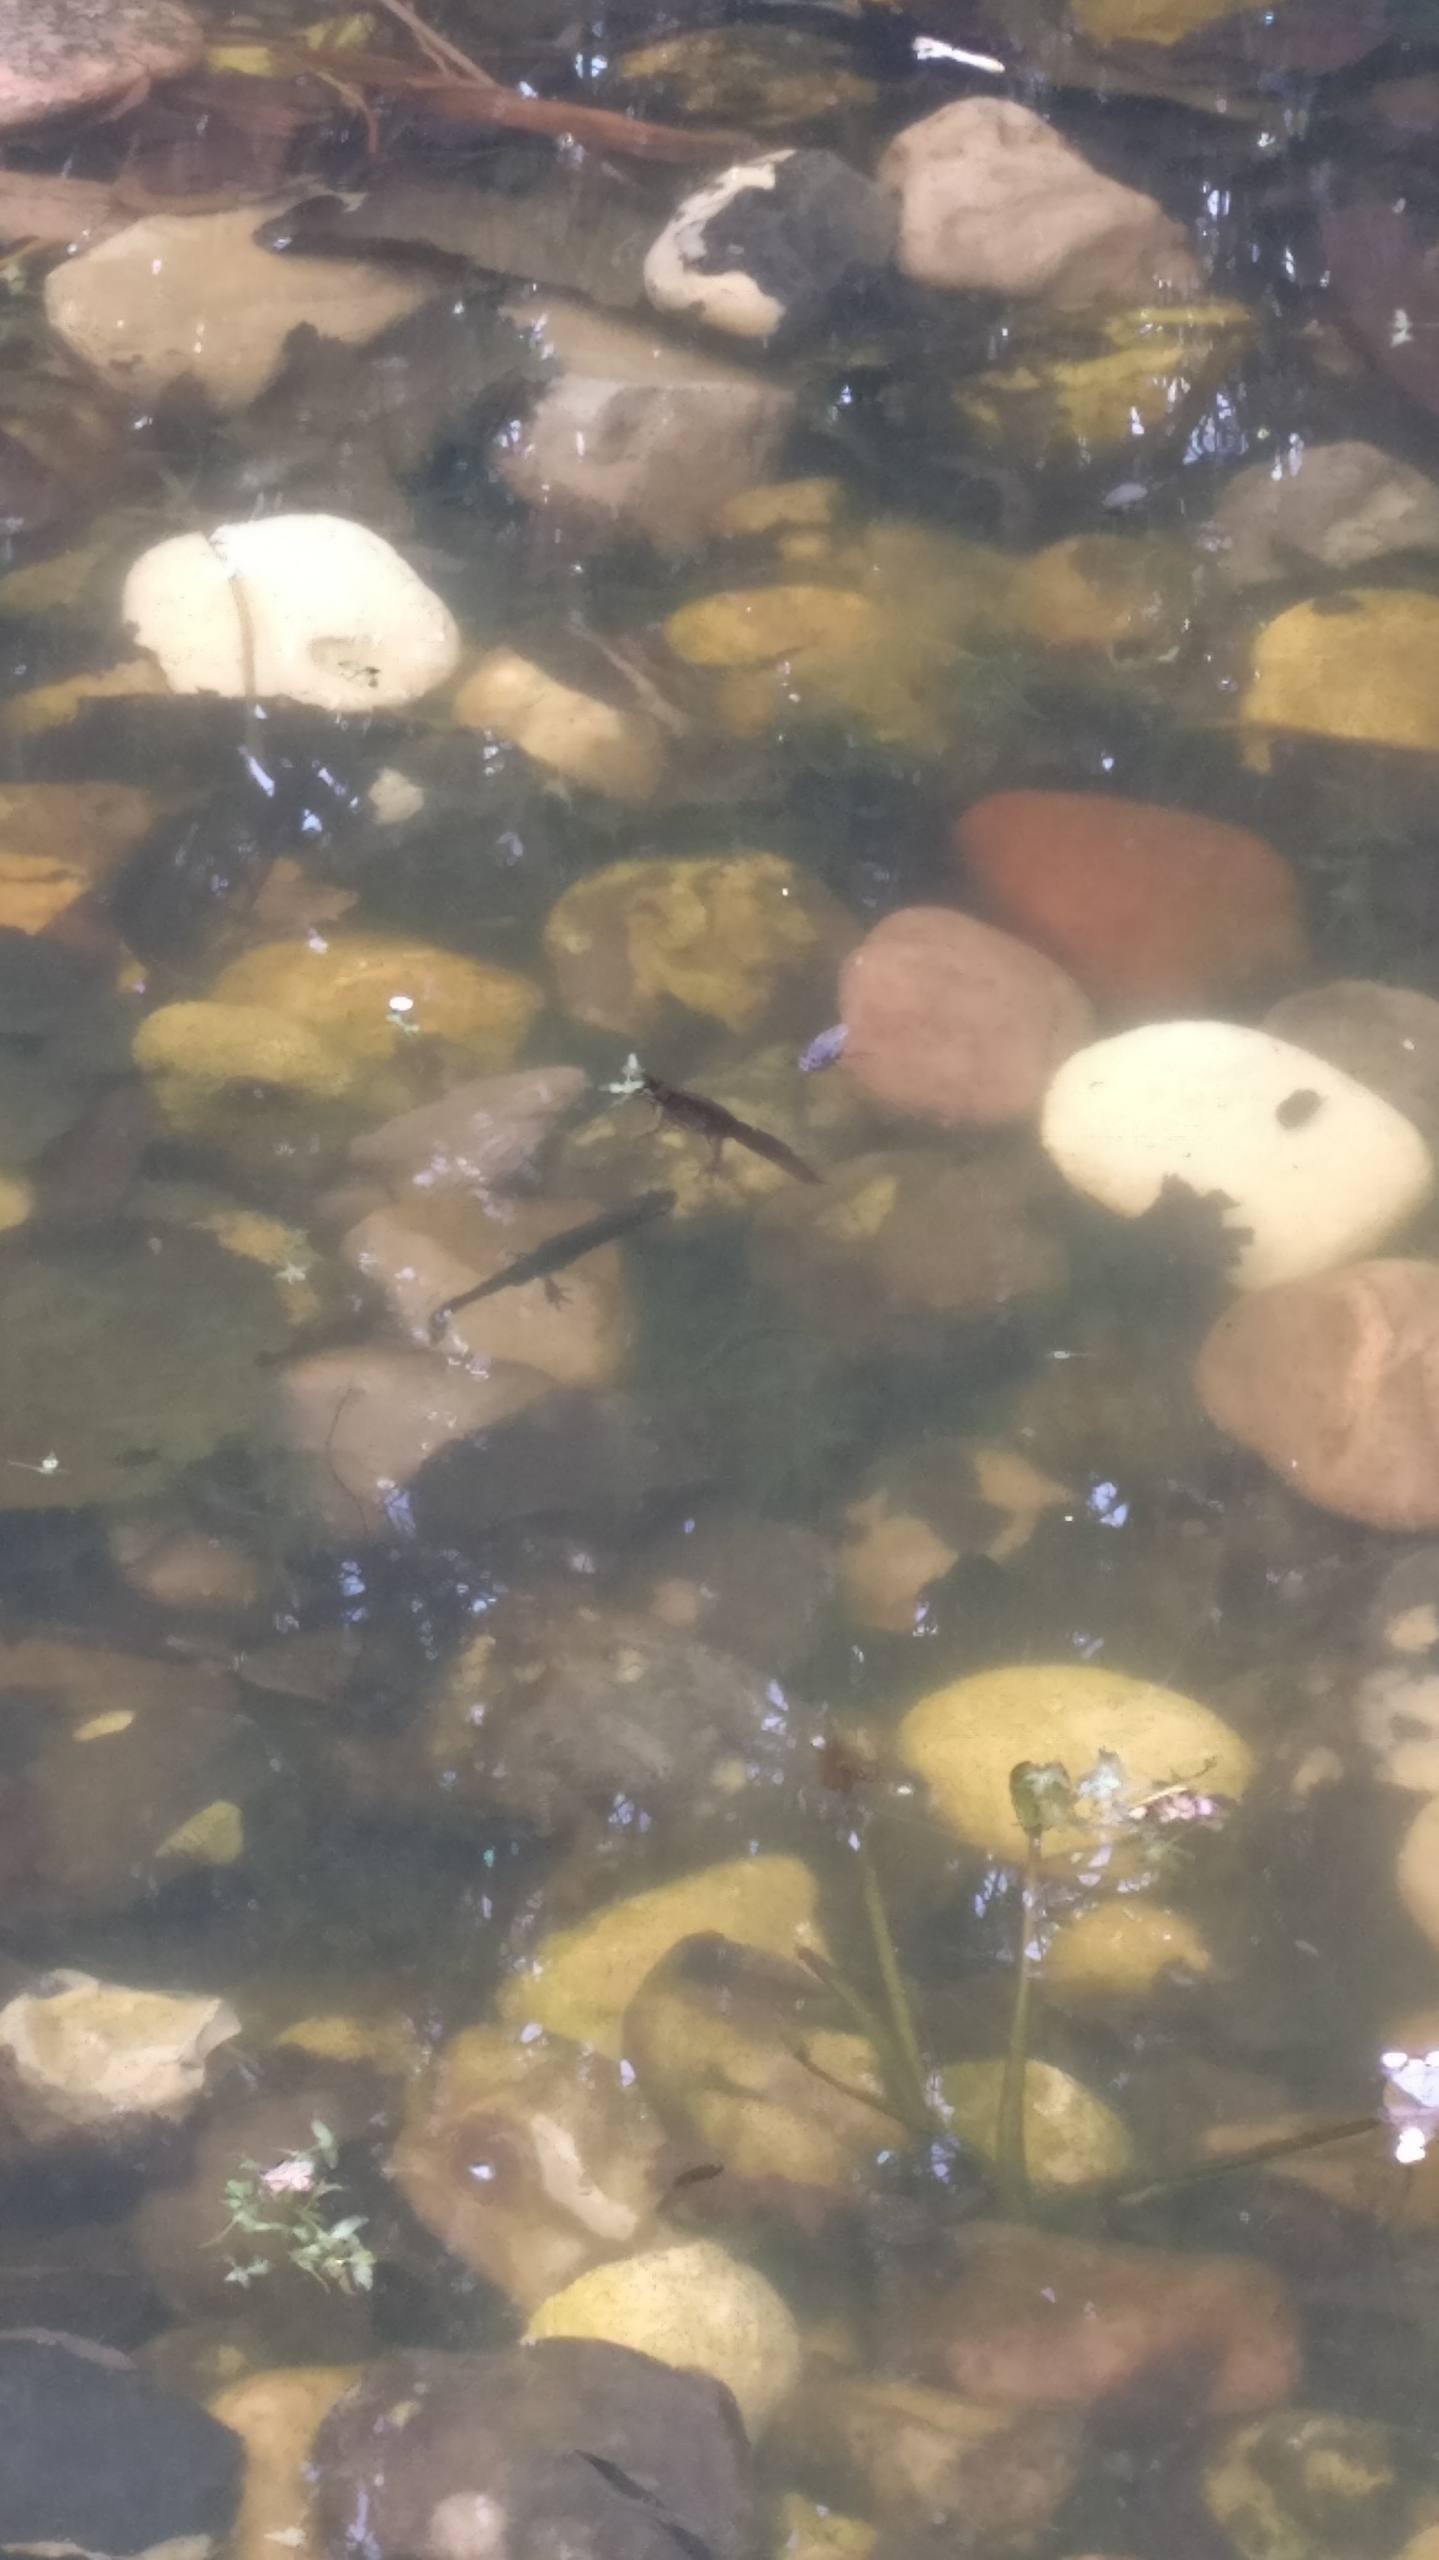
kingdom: Animalia
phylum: Chordata
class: Amphibia
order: Caudata
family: Salamandridae
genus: Lissotriton
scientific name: Lissotriton vulgaris
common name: Lille vandsalamander
